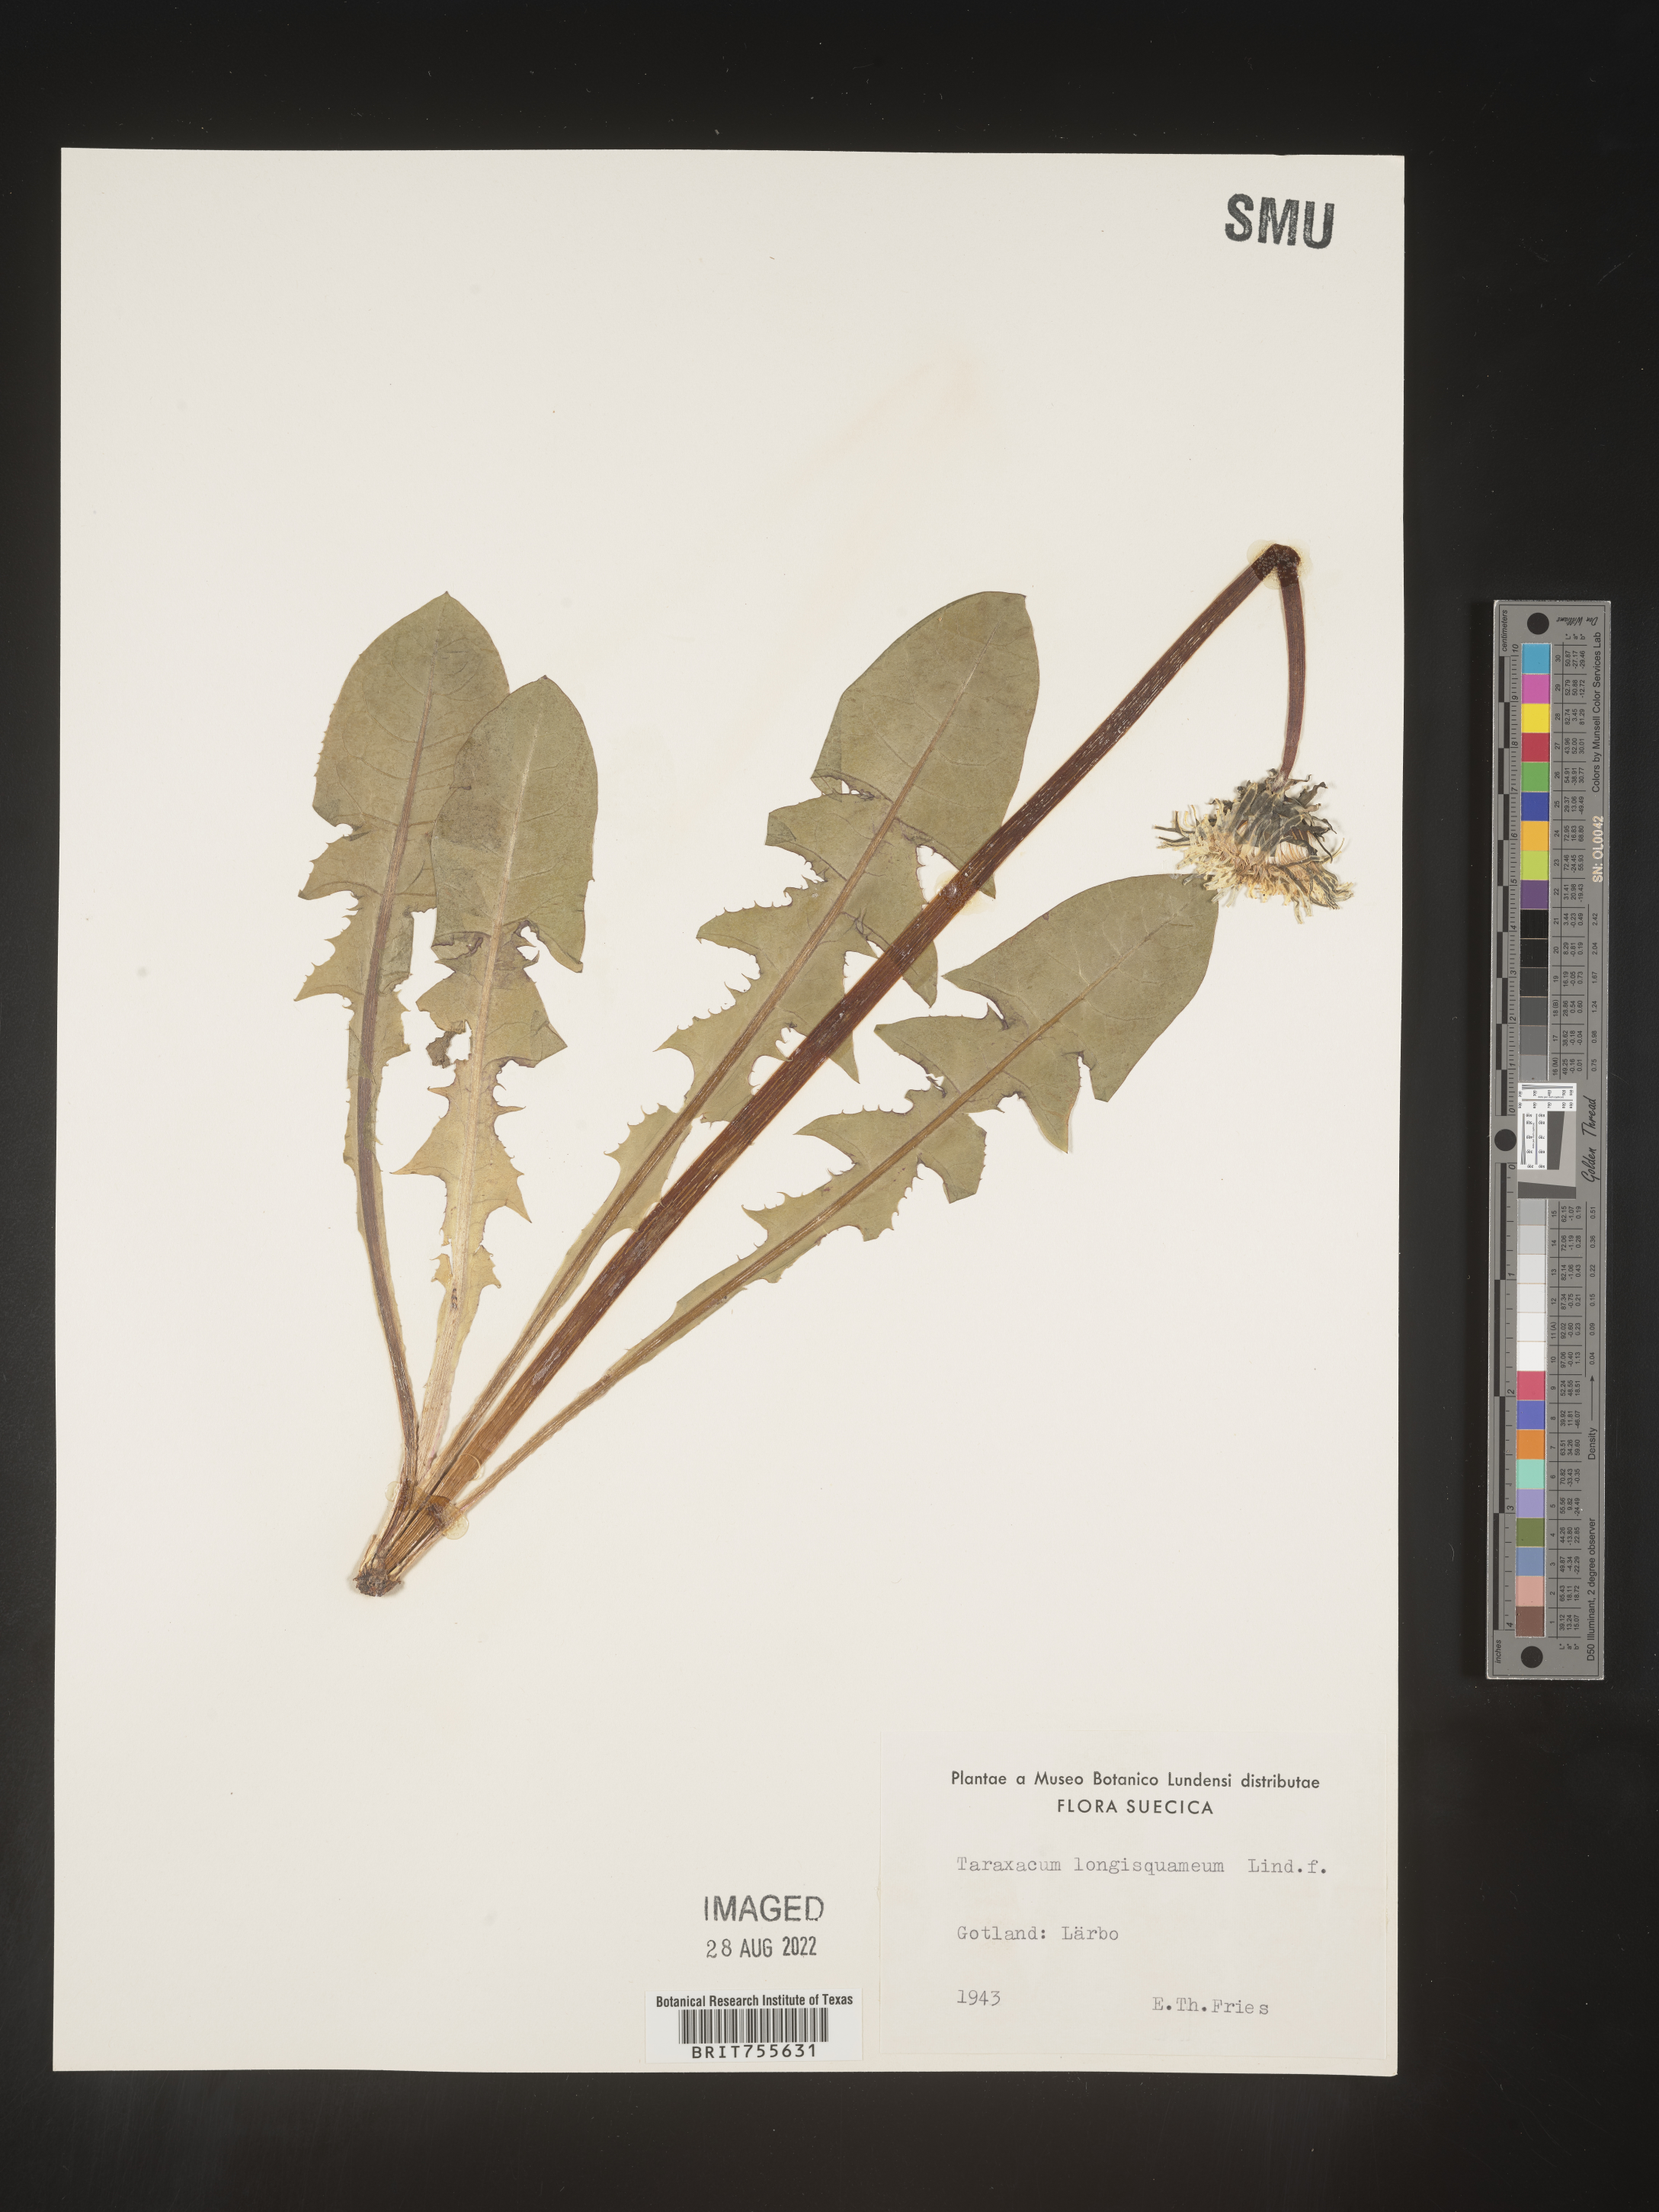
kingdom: Plantae
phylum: Tracheophyta
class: Magnoliopsida
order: Asterales
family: Asteraceae
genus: Taraxacum
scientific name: Taraxacum
